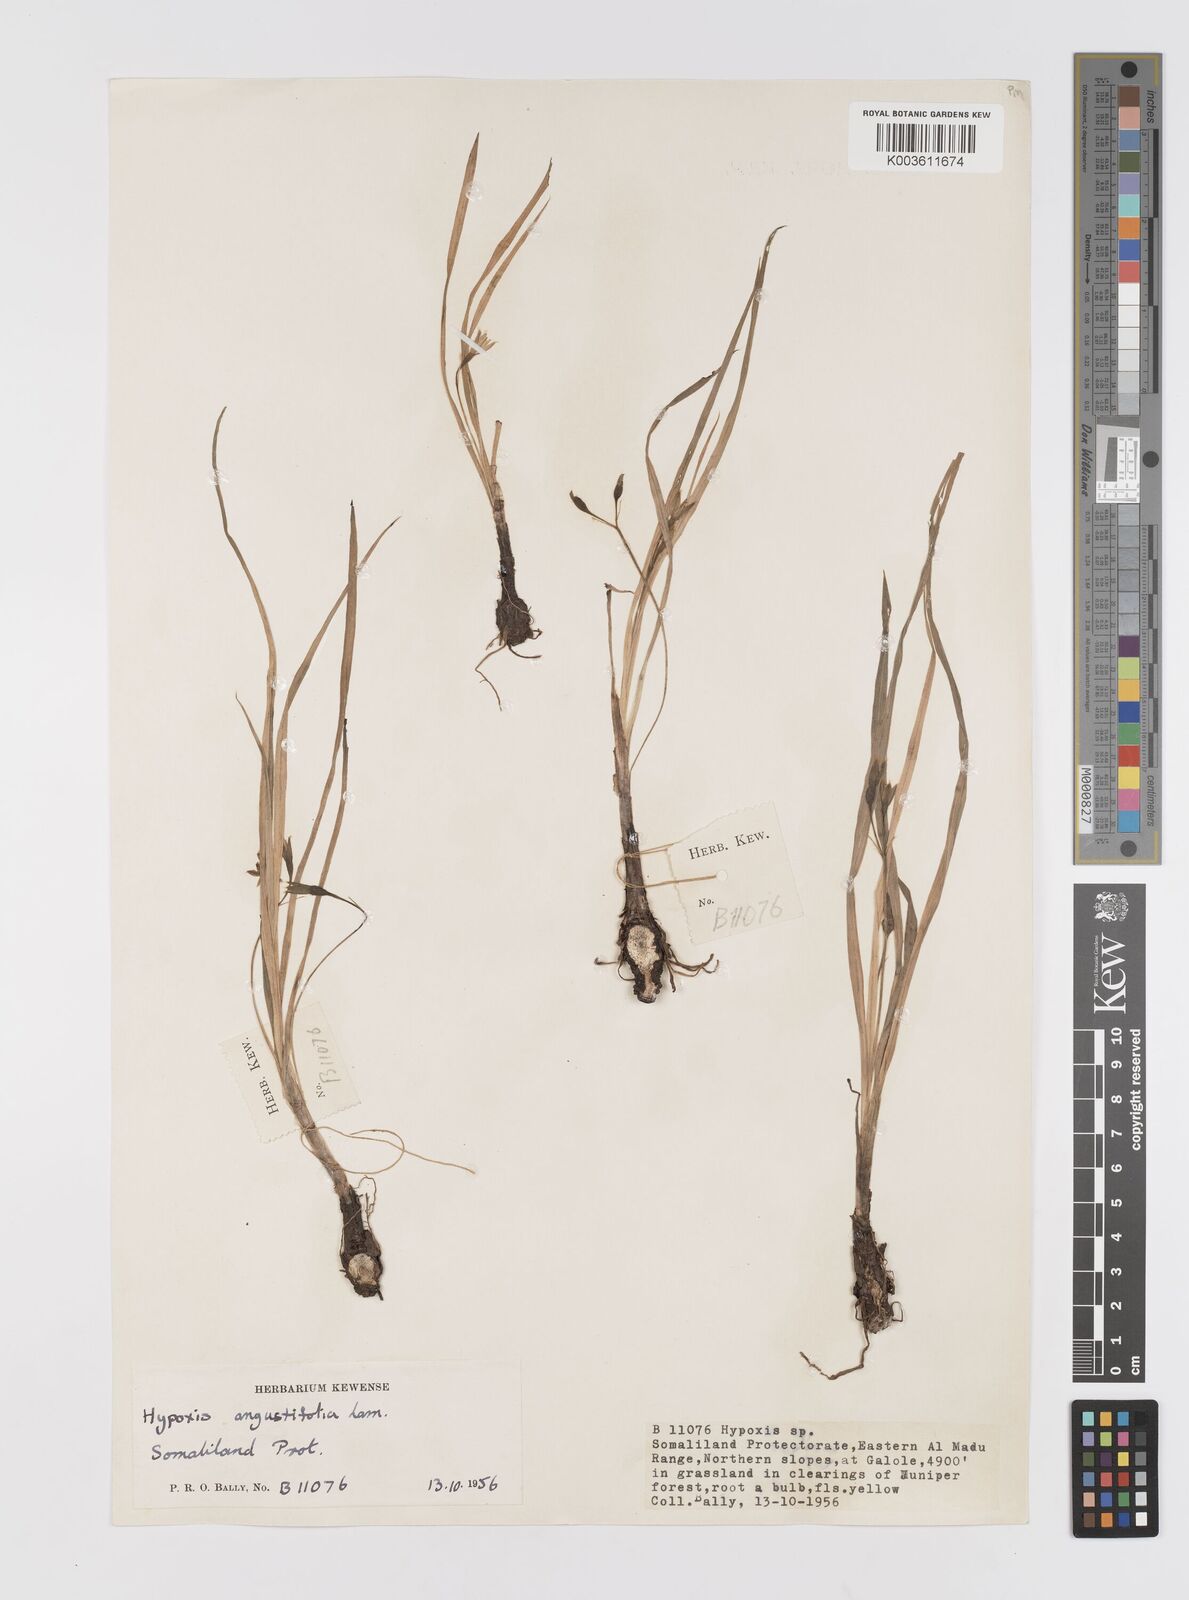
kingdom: Plantae
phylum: Tracheophyta
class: Liliopsida
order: Asparagales
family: Hypoxidaceae
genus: Hypoxis
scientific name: Hypoxis angustifolia
